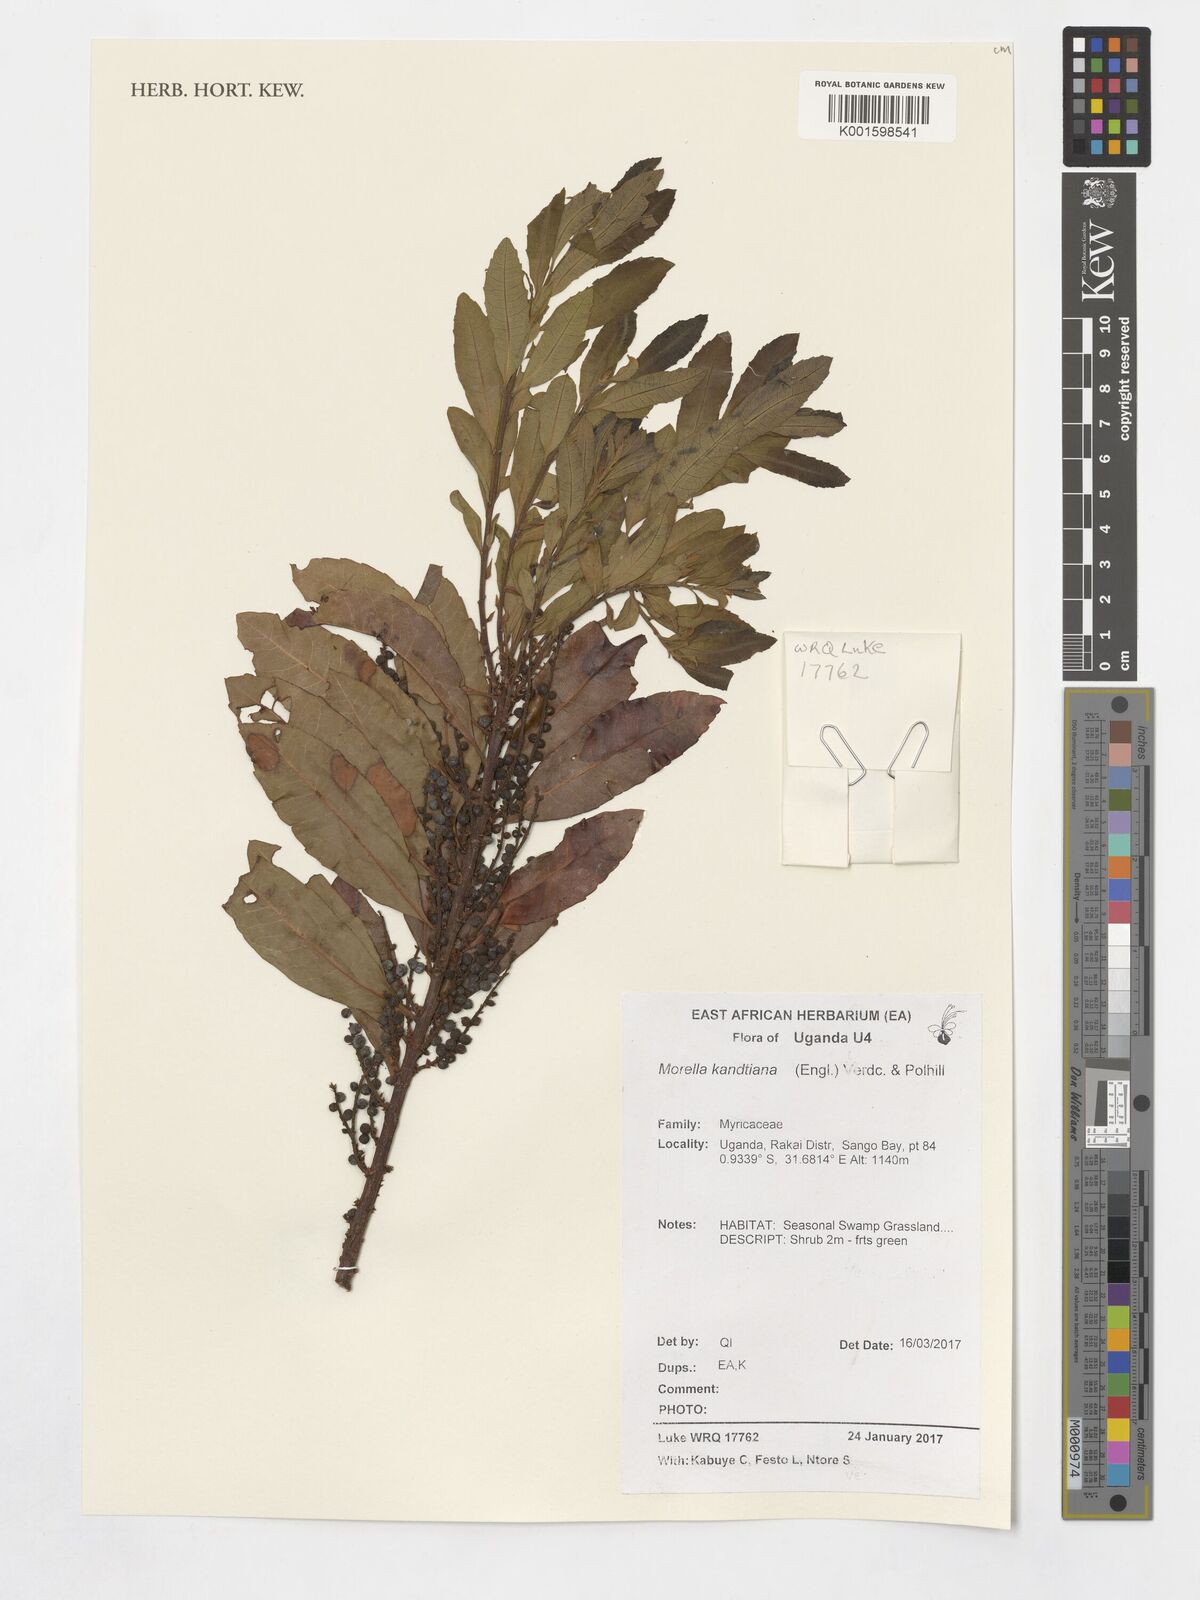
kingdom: Plantae
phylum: Tracheophyta
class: Magnoliopsida
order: Fagales
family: Myricaceae
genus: Morella
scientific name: Morella kandtiana
